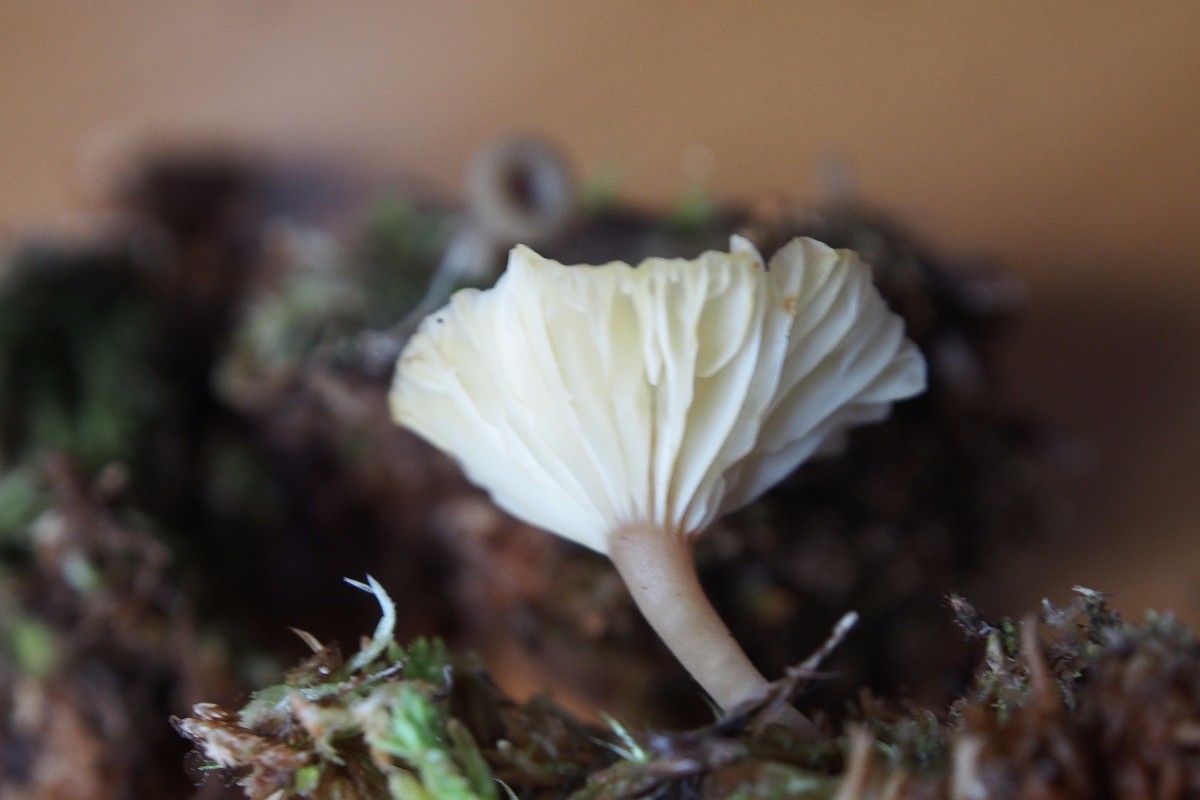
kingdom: Fungi
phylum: Basidiomycota
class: Agaricomycetes
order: Agaricales
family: Hygrophoraceae
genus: Lichenomphalia
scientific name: Lichenomphalia umbellifera
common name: tørve-lavhat
